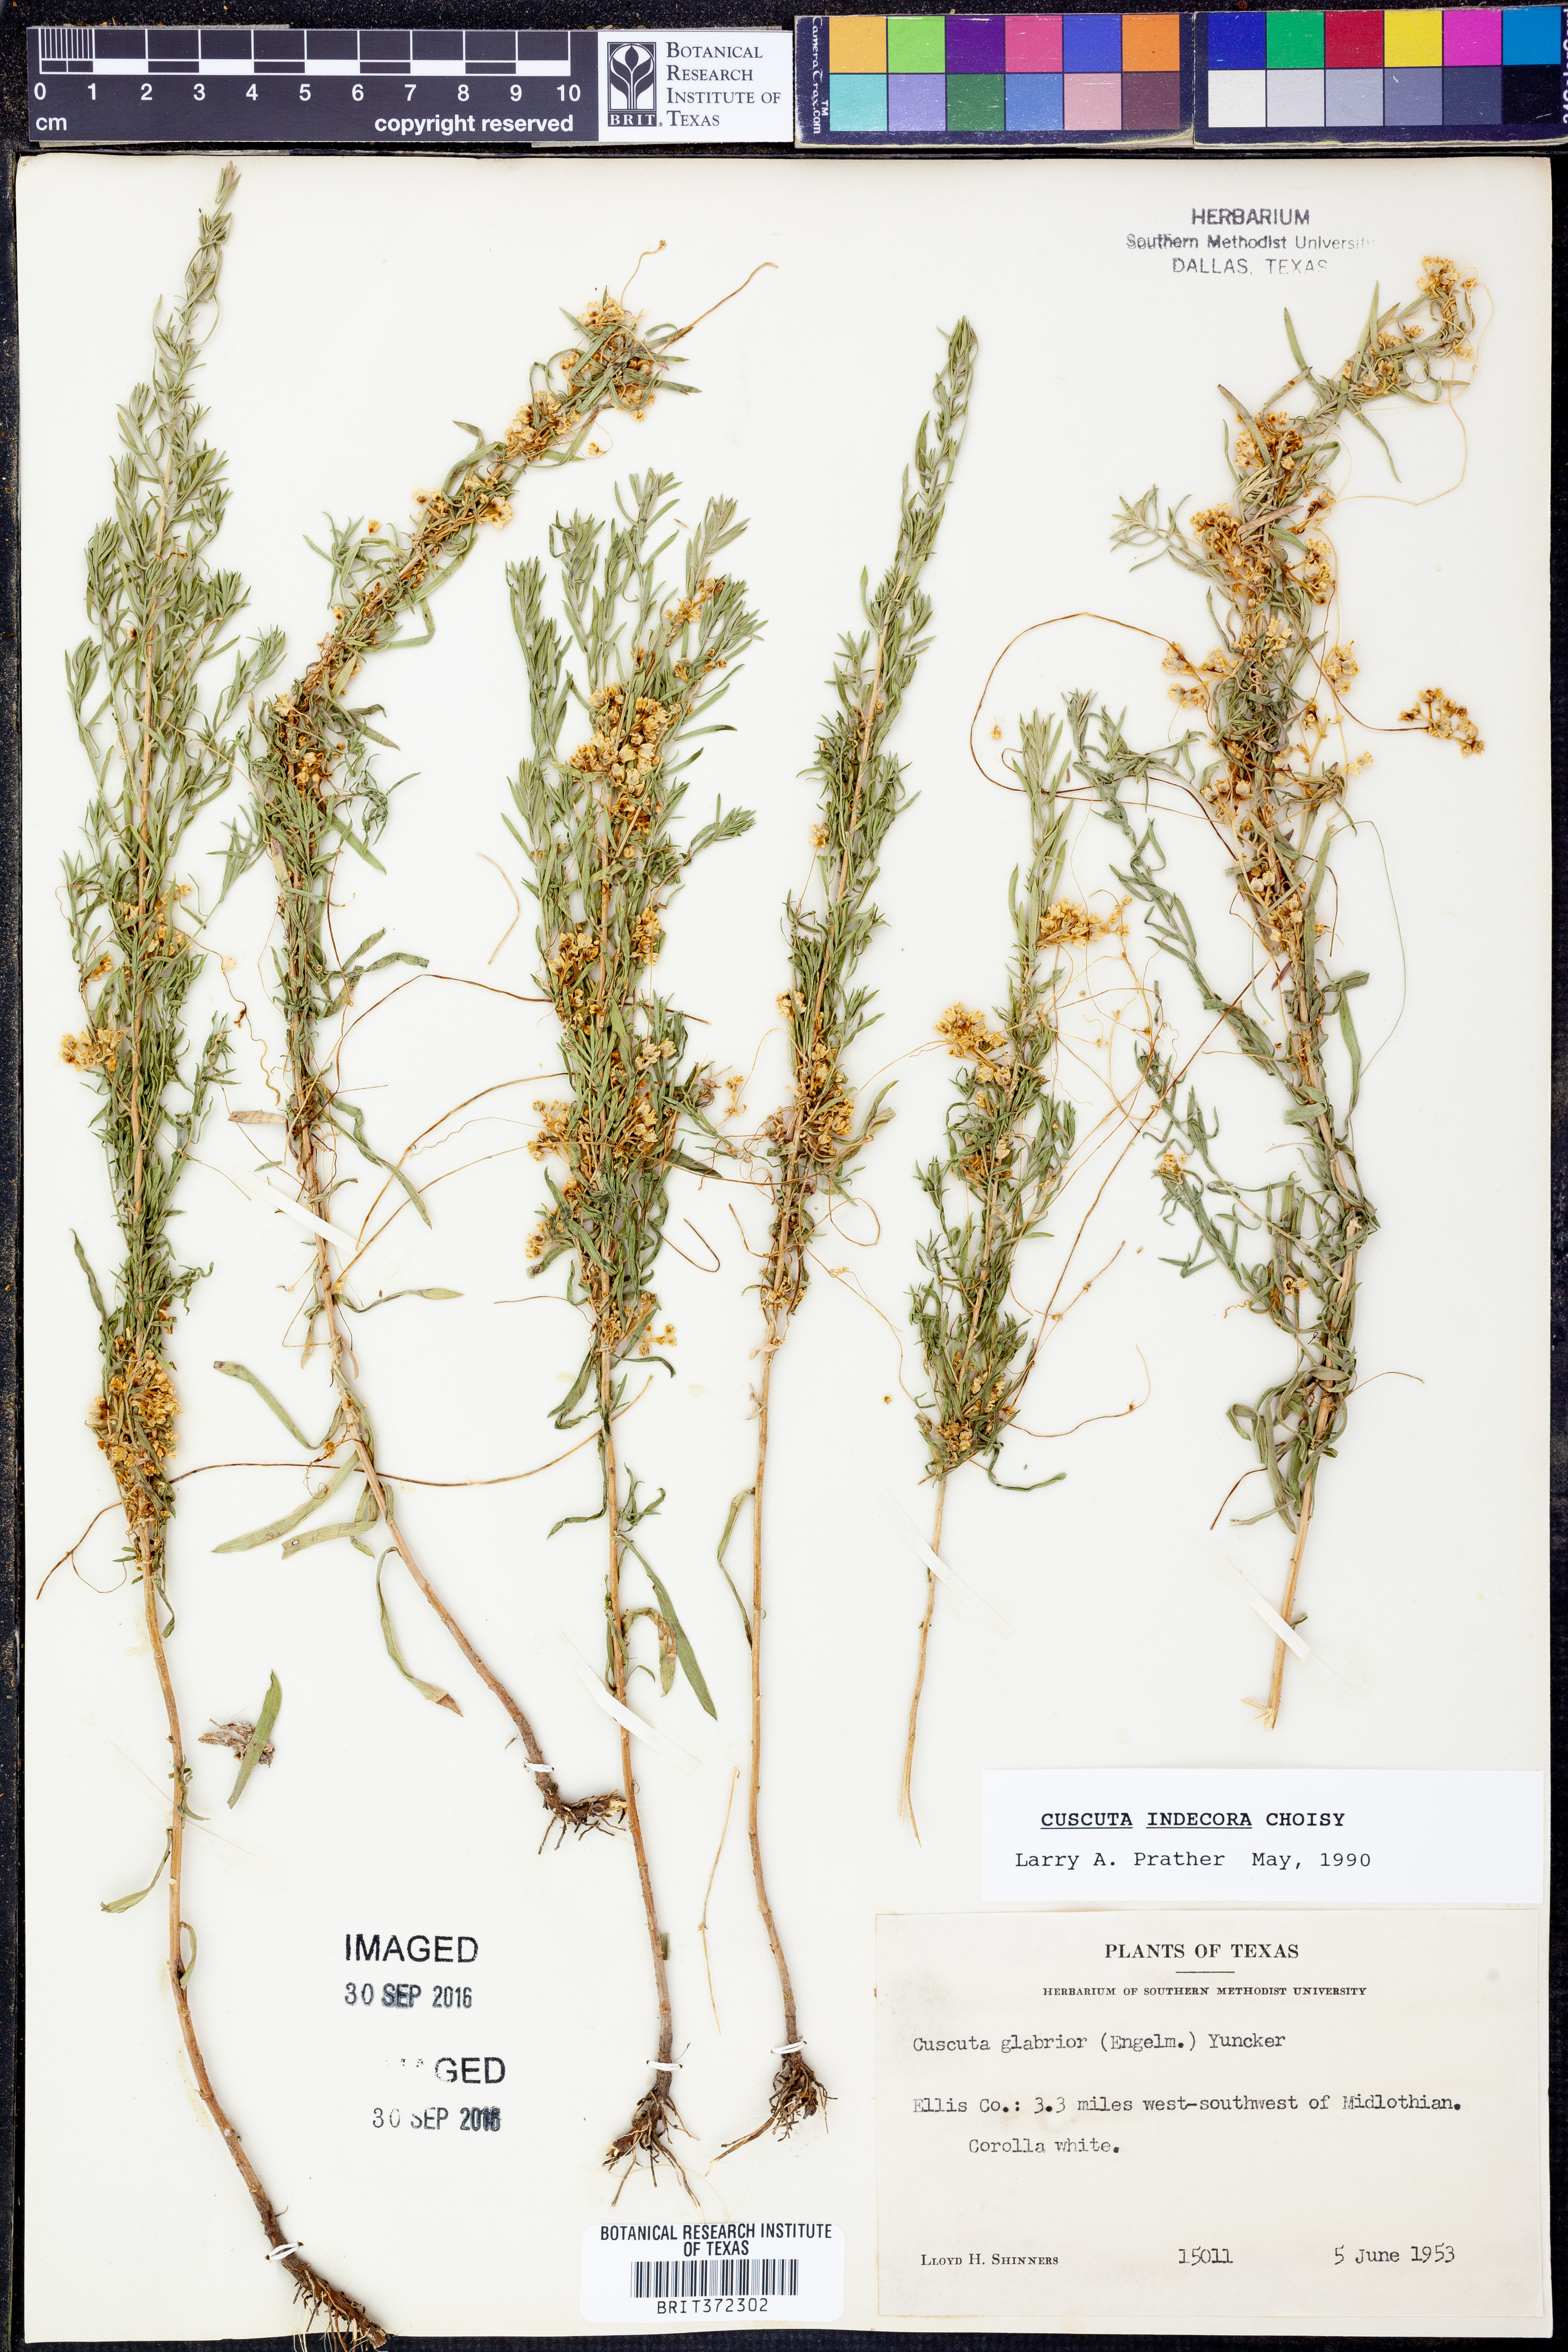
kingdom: Plantae
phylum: Tracheophyta
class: Magnoliopsida
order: Solanales
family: Convolvulaceae
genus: Cuscuta
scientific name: Cuscuta indecora
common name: Large-seed dodder
